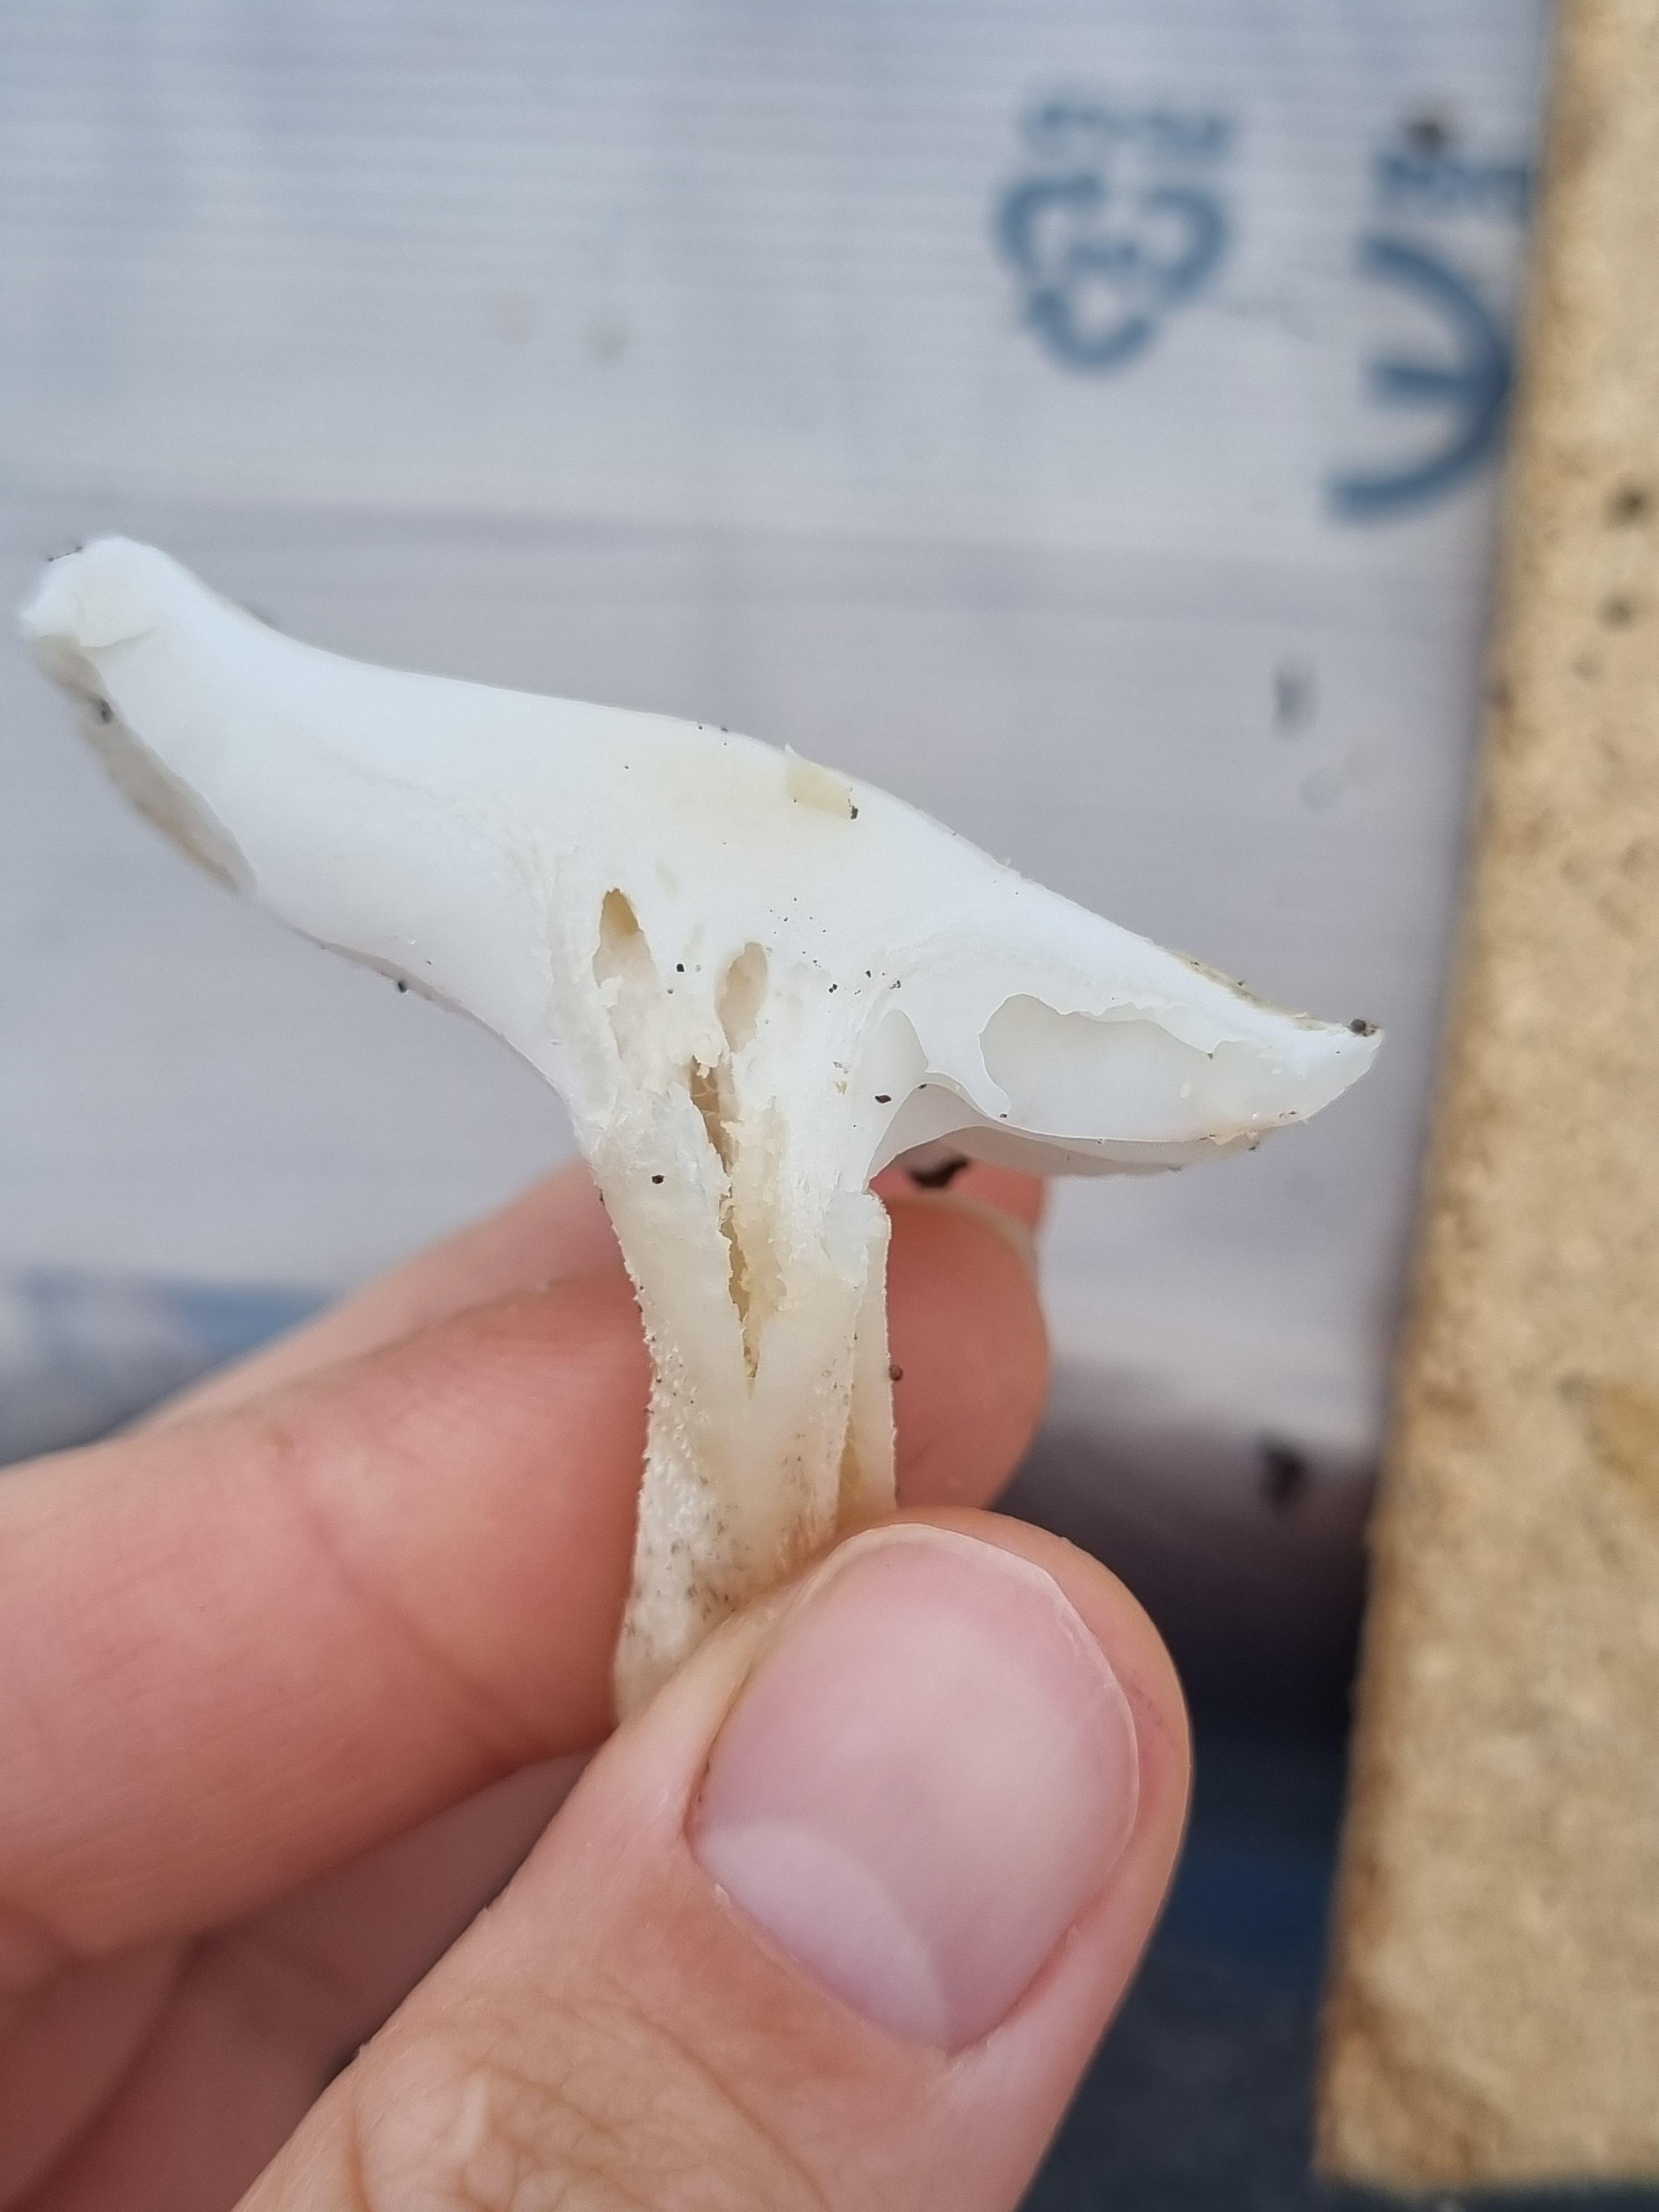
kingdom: Fungi
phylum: Basidiomycota
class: Agaricomycetes
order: Agaricales
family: Tricholomataceae
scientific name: Tricholomataceae
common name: ridderhatfamilien
